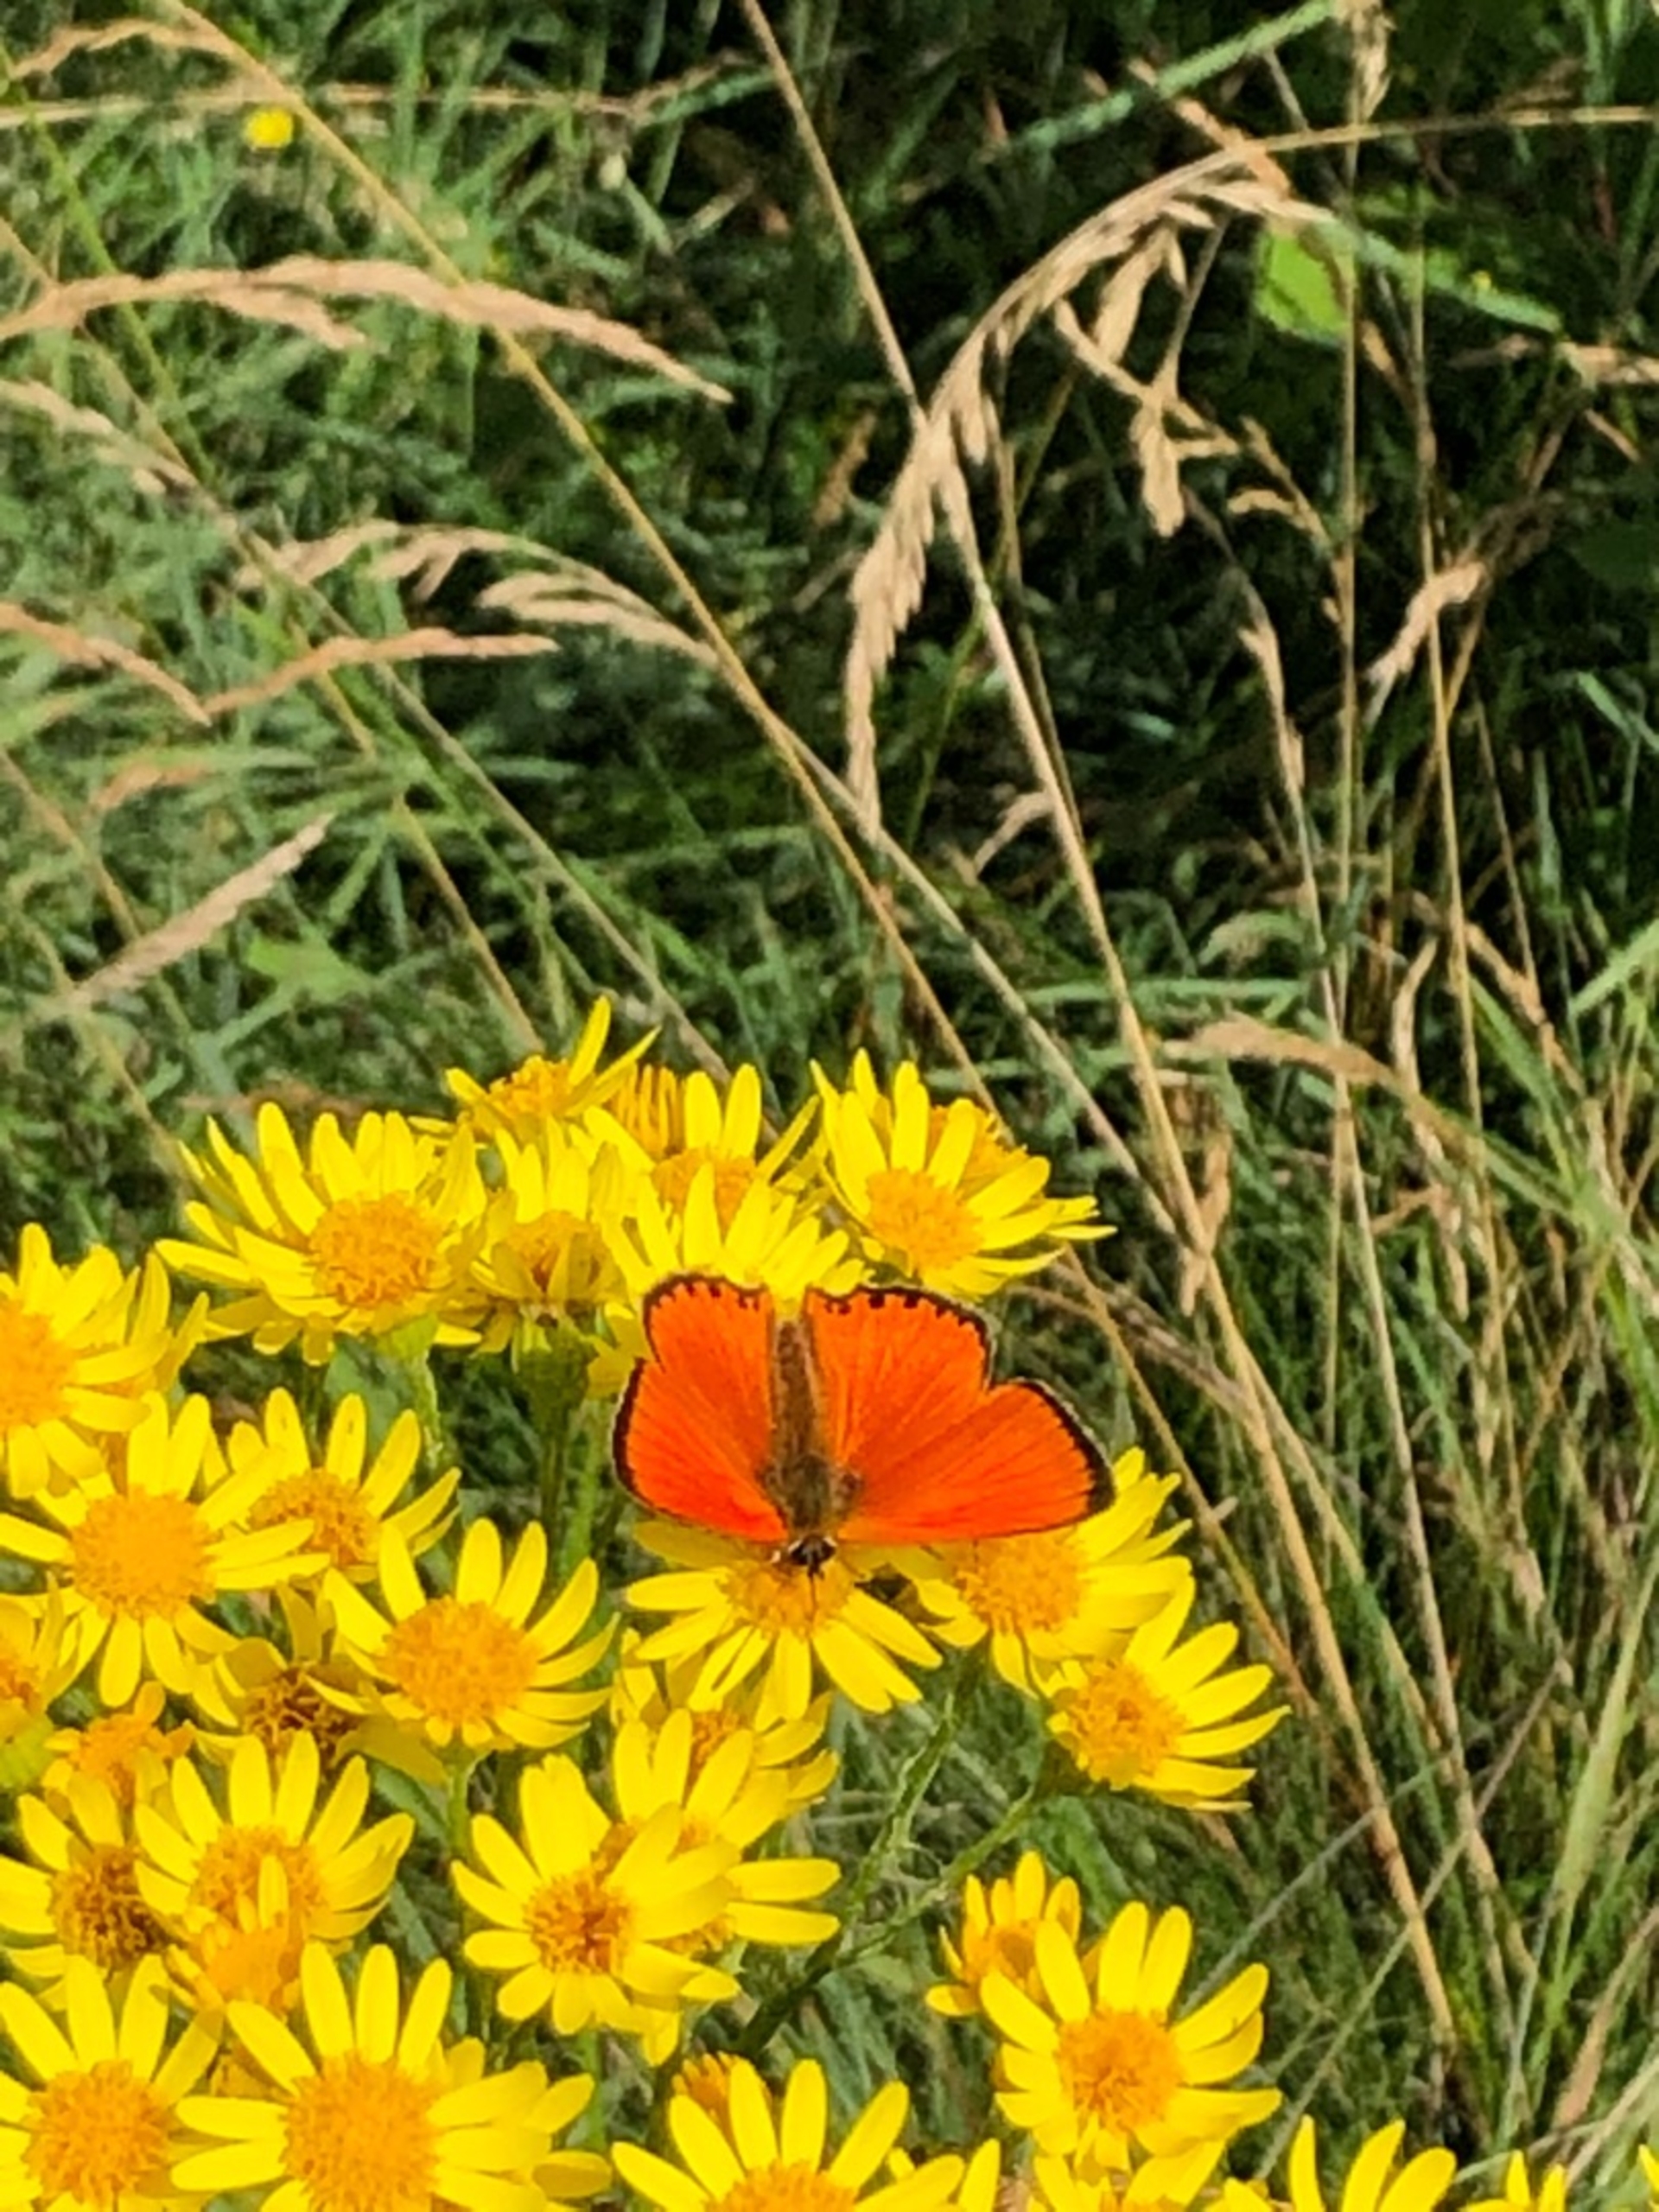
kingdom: Animalia
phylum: Arthropoda
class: Insecta
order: Lepidoptera
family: Lycaenidae
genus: Lycaena
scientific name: Lycaena virgaureae
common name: Dukatsommerfugl
